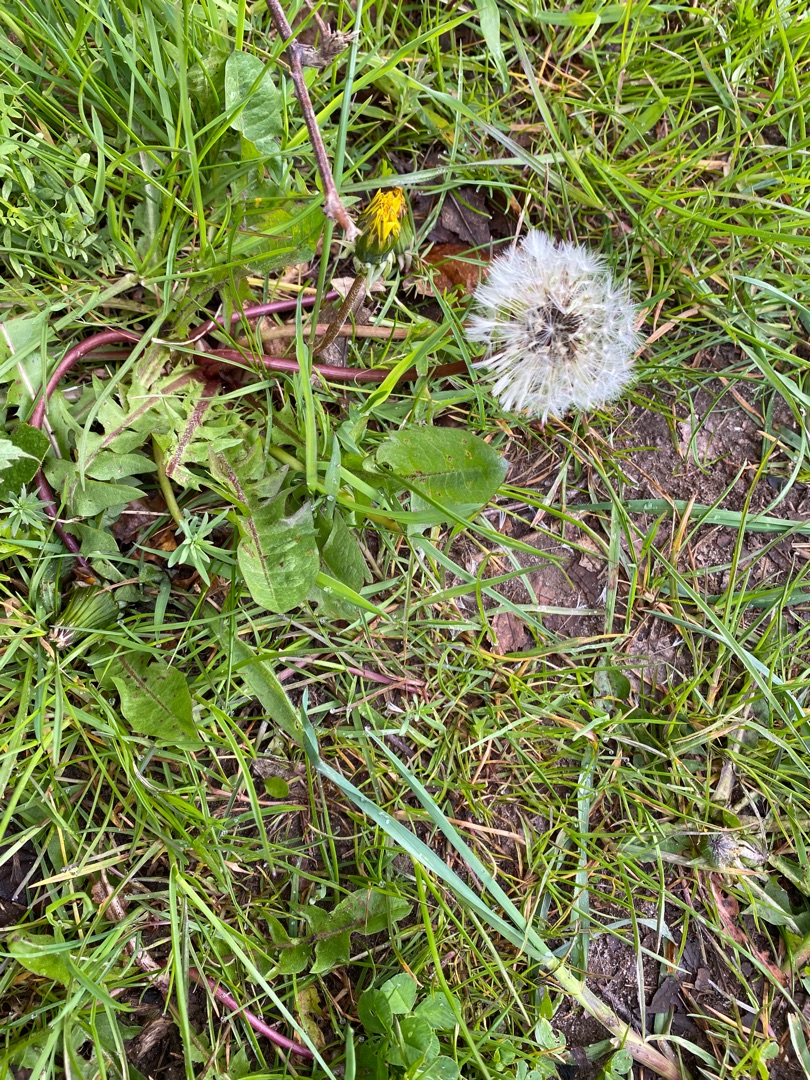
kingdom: Plantae
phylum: Tracheophyta
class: Magnoliopsida
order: Asterales
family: Asteraceae
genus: Taraxacum
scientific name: Taraxacum
